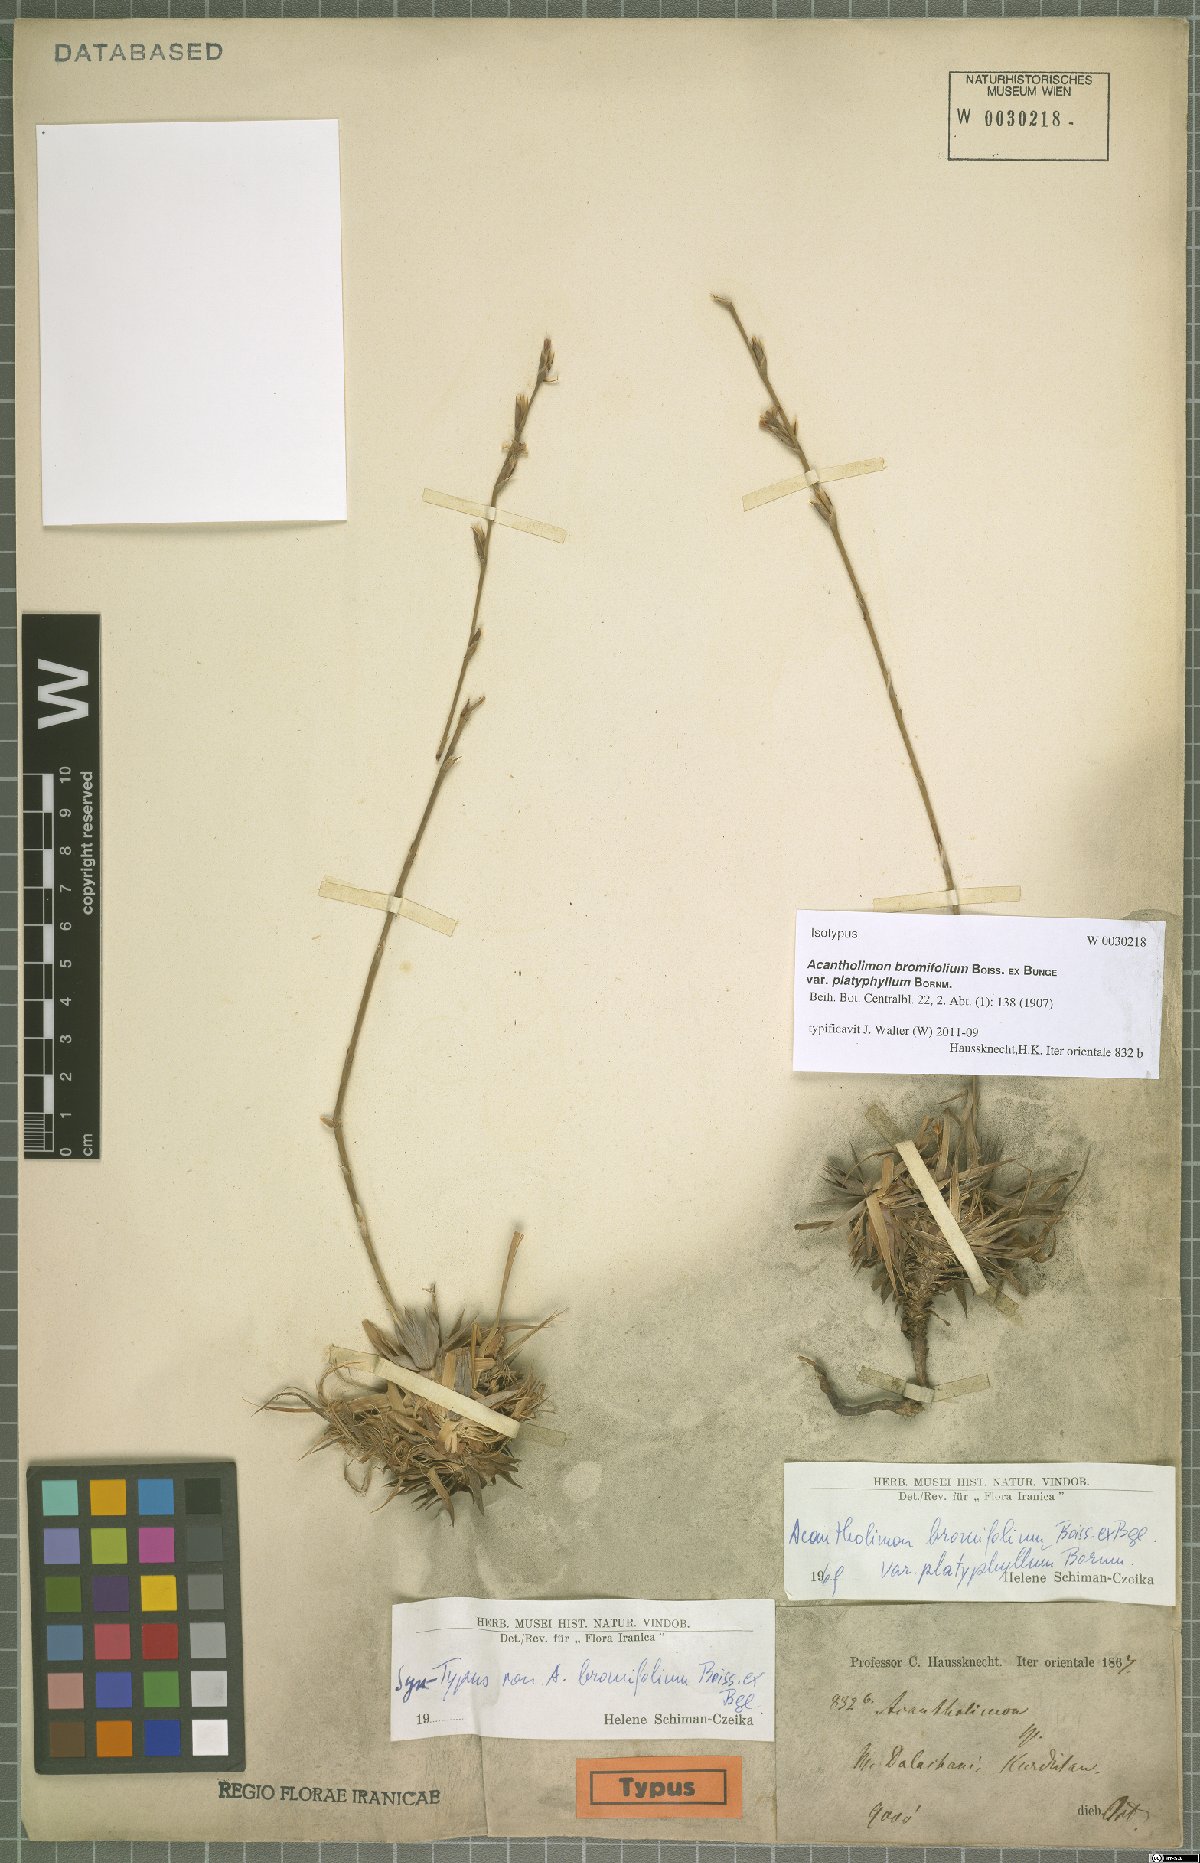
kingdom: Plantae
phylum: Tracheophyta
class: Magnoliopsida
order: Caryophyllales
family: Plumbaginaceae
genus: Acantholimon
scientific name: Acantholimon bromifolium
